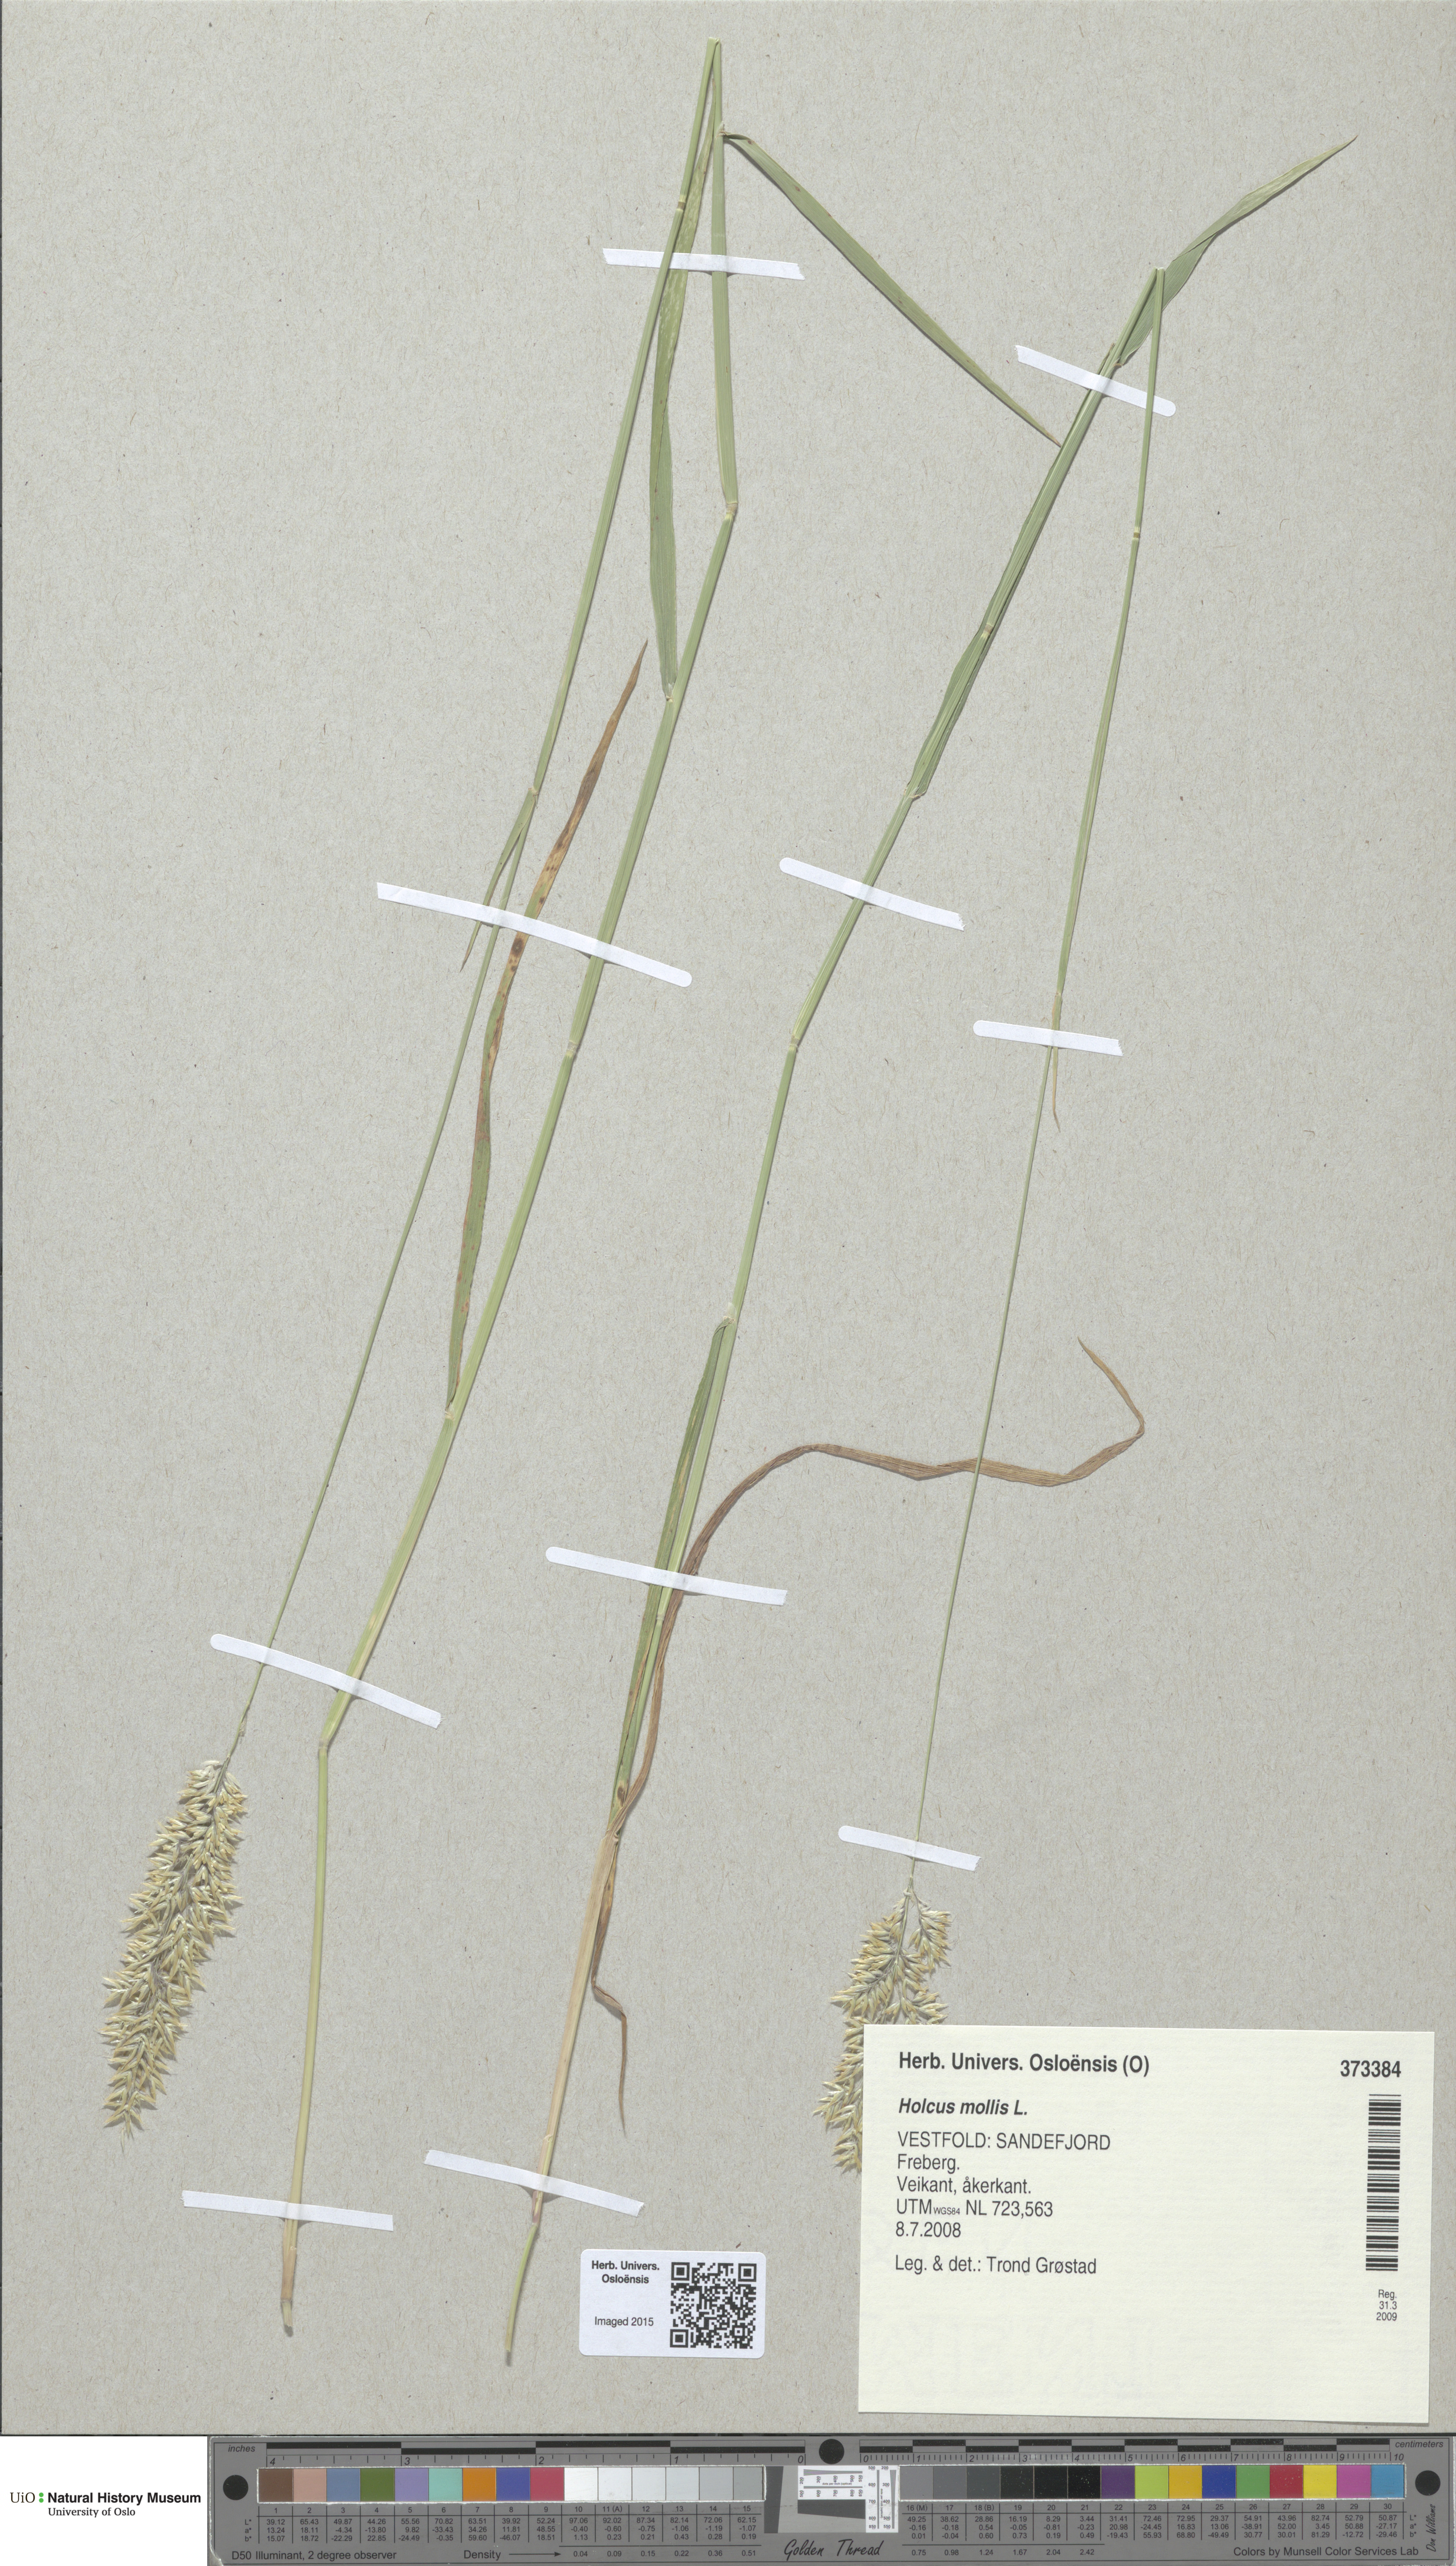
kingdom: Plantae
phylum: Tracheophyta
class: Liliopsida
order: Poales
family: Poaceae
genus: Holcus
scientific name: Holcus mollis
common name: Creeping velvetgrass
